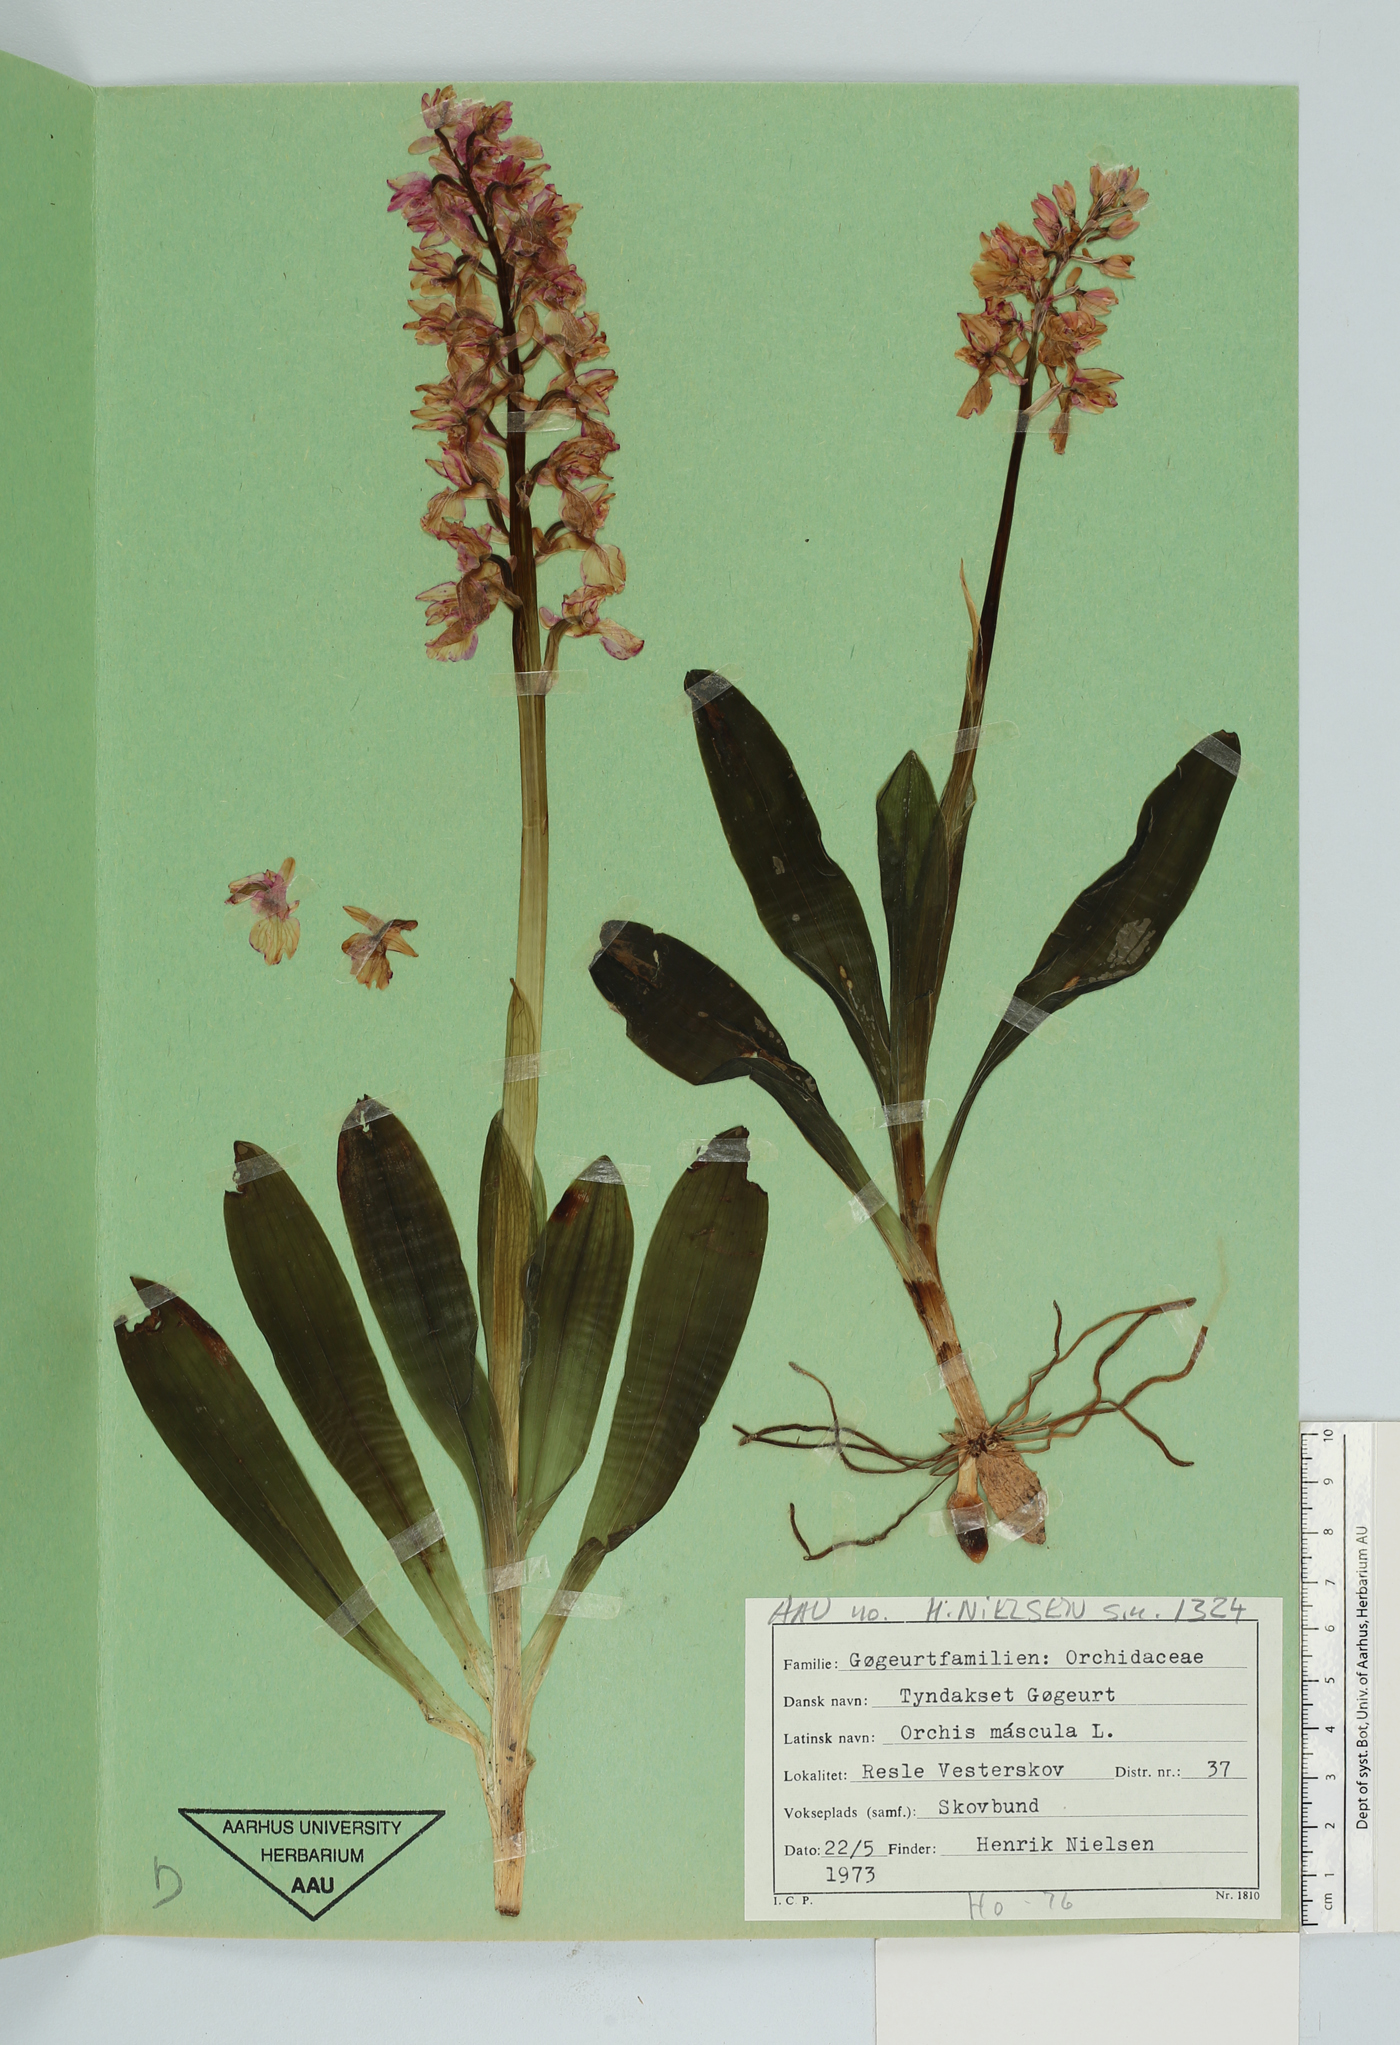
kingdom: Plantae
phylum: Tracheophyta
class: Liliopsida
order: Asparagales
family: Orchidaceae
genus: Orchis
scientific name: Orchis mascula
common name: Early-purple orchid
